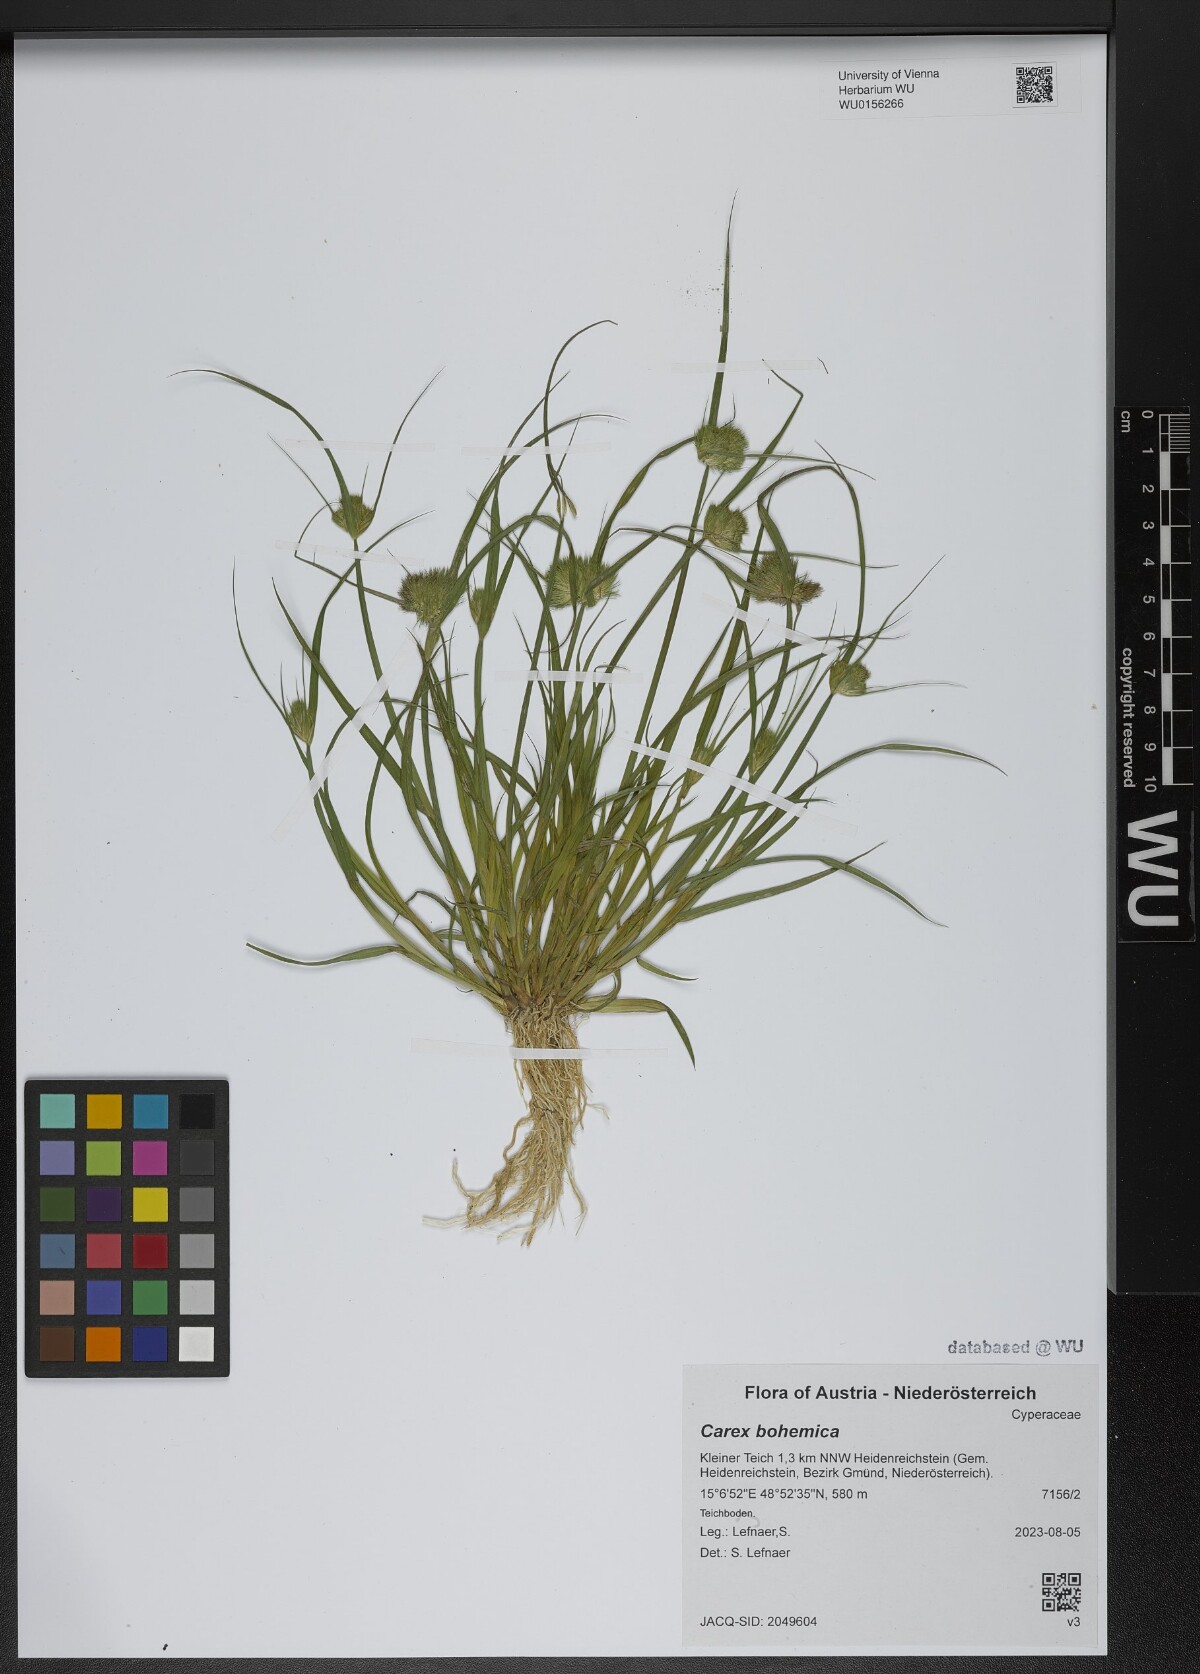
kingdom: Plantae
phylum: Tracheophyta
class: Liliopsida
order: Poales
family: Cyperaceae
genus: Carex
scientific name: Carex bohemica
